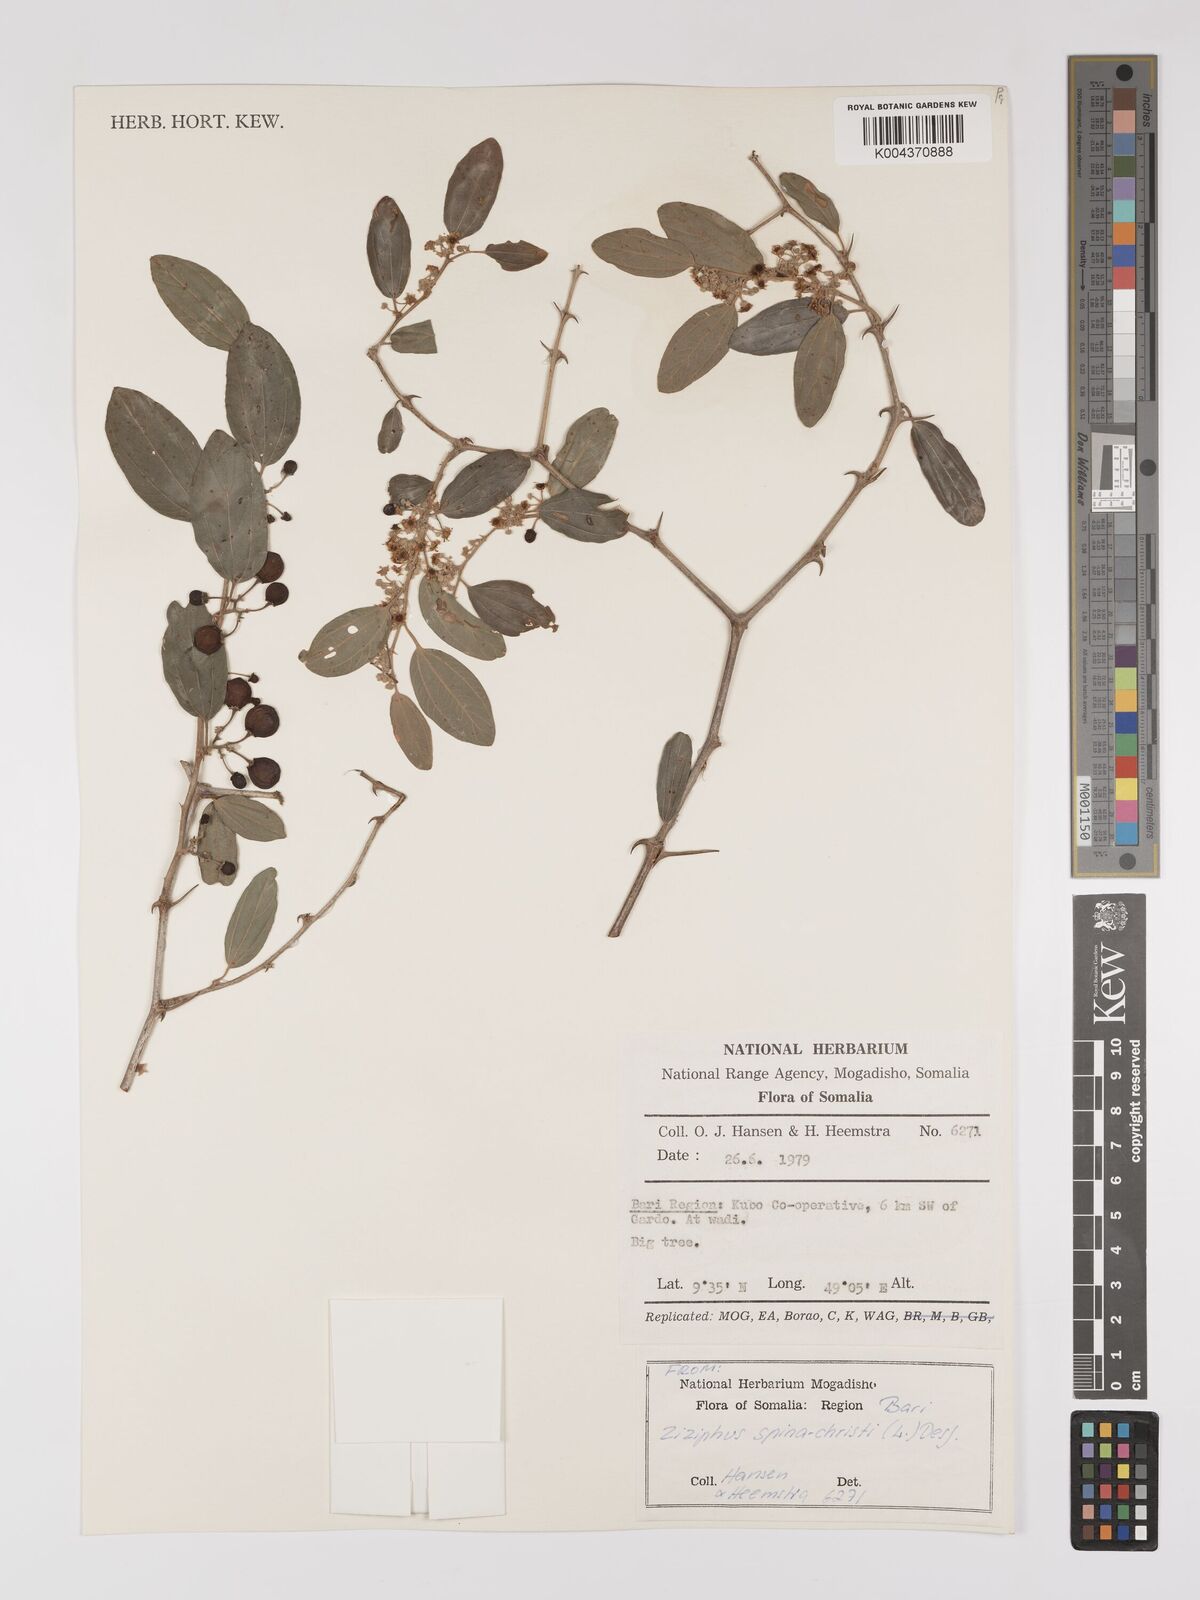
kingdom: Plantae
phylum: Tracheophyta
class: Magnoliopsida
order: Rosales
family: Rhamnaceae
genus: Ziziphus
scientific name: Ziziphus spina-christi
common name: Syrian christ-thorn
